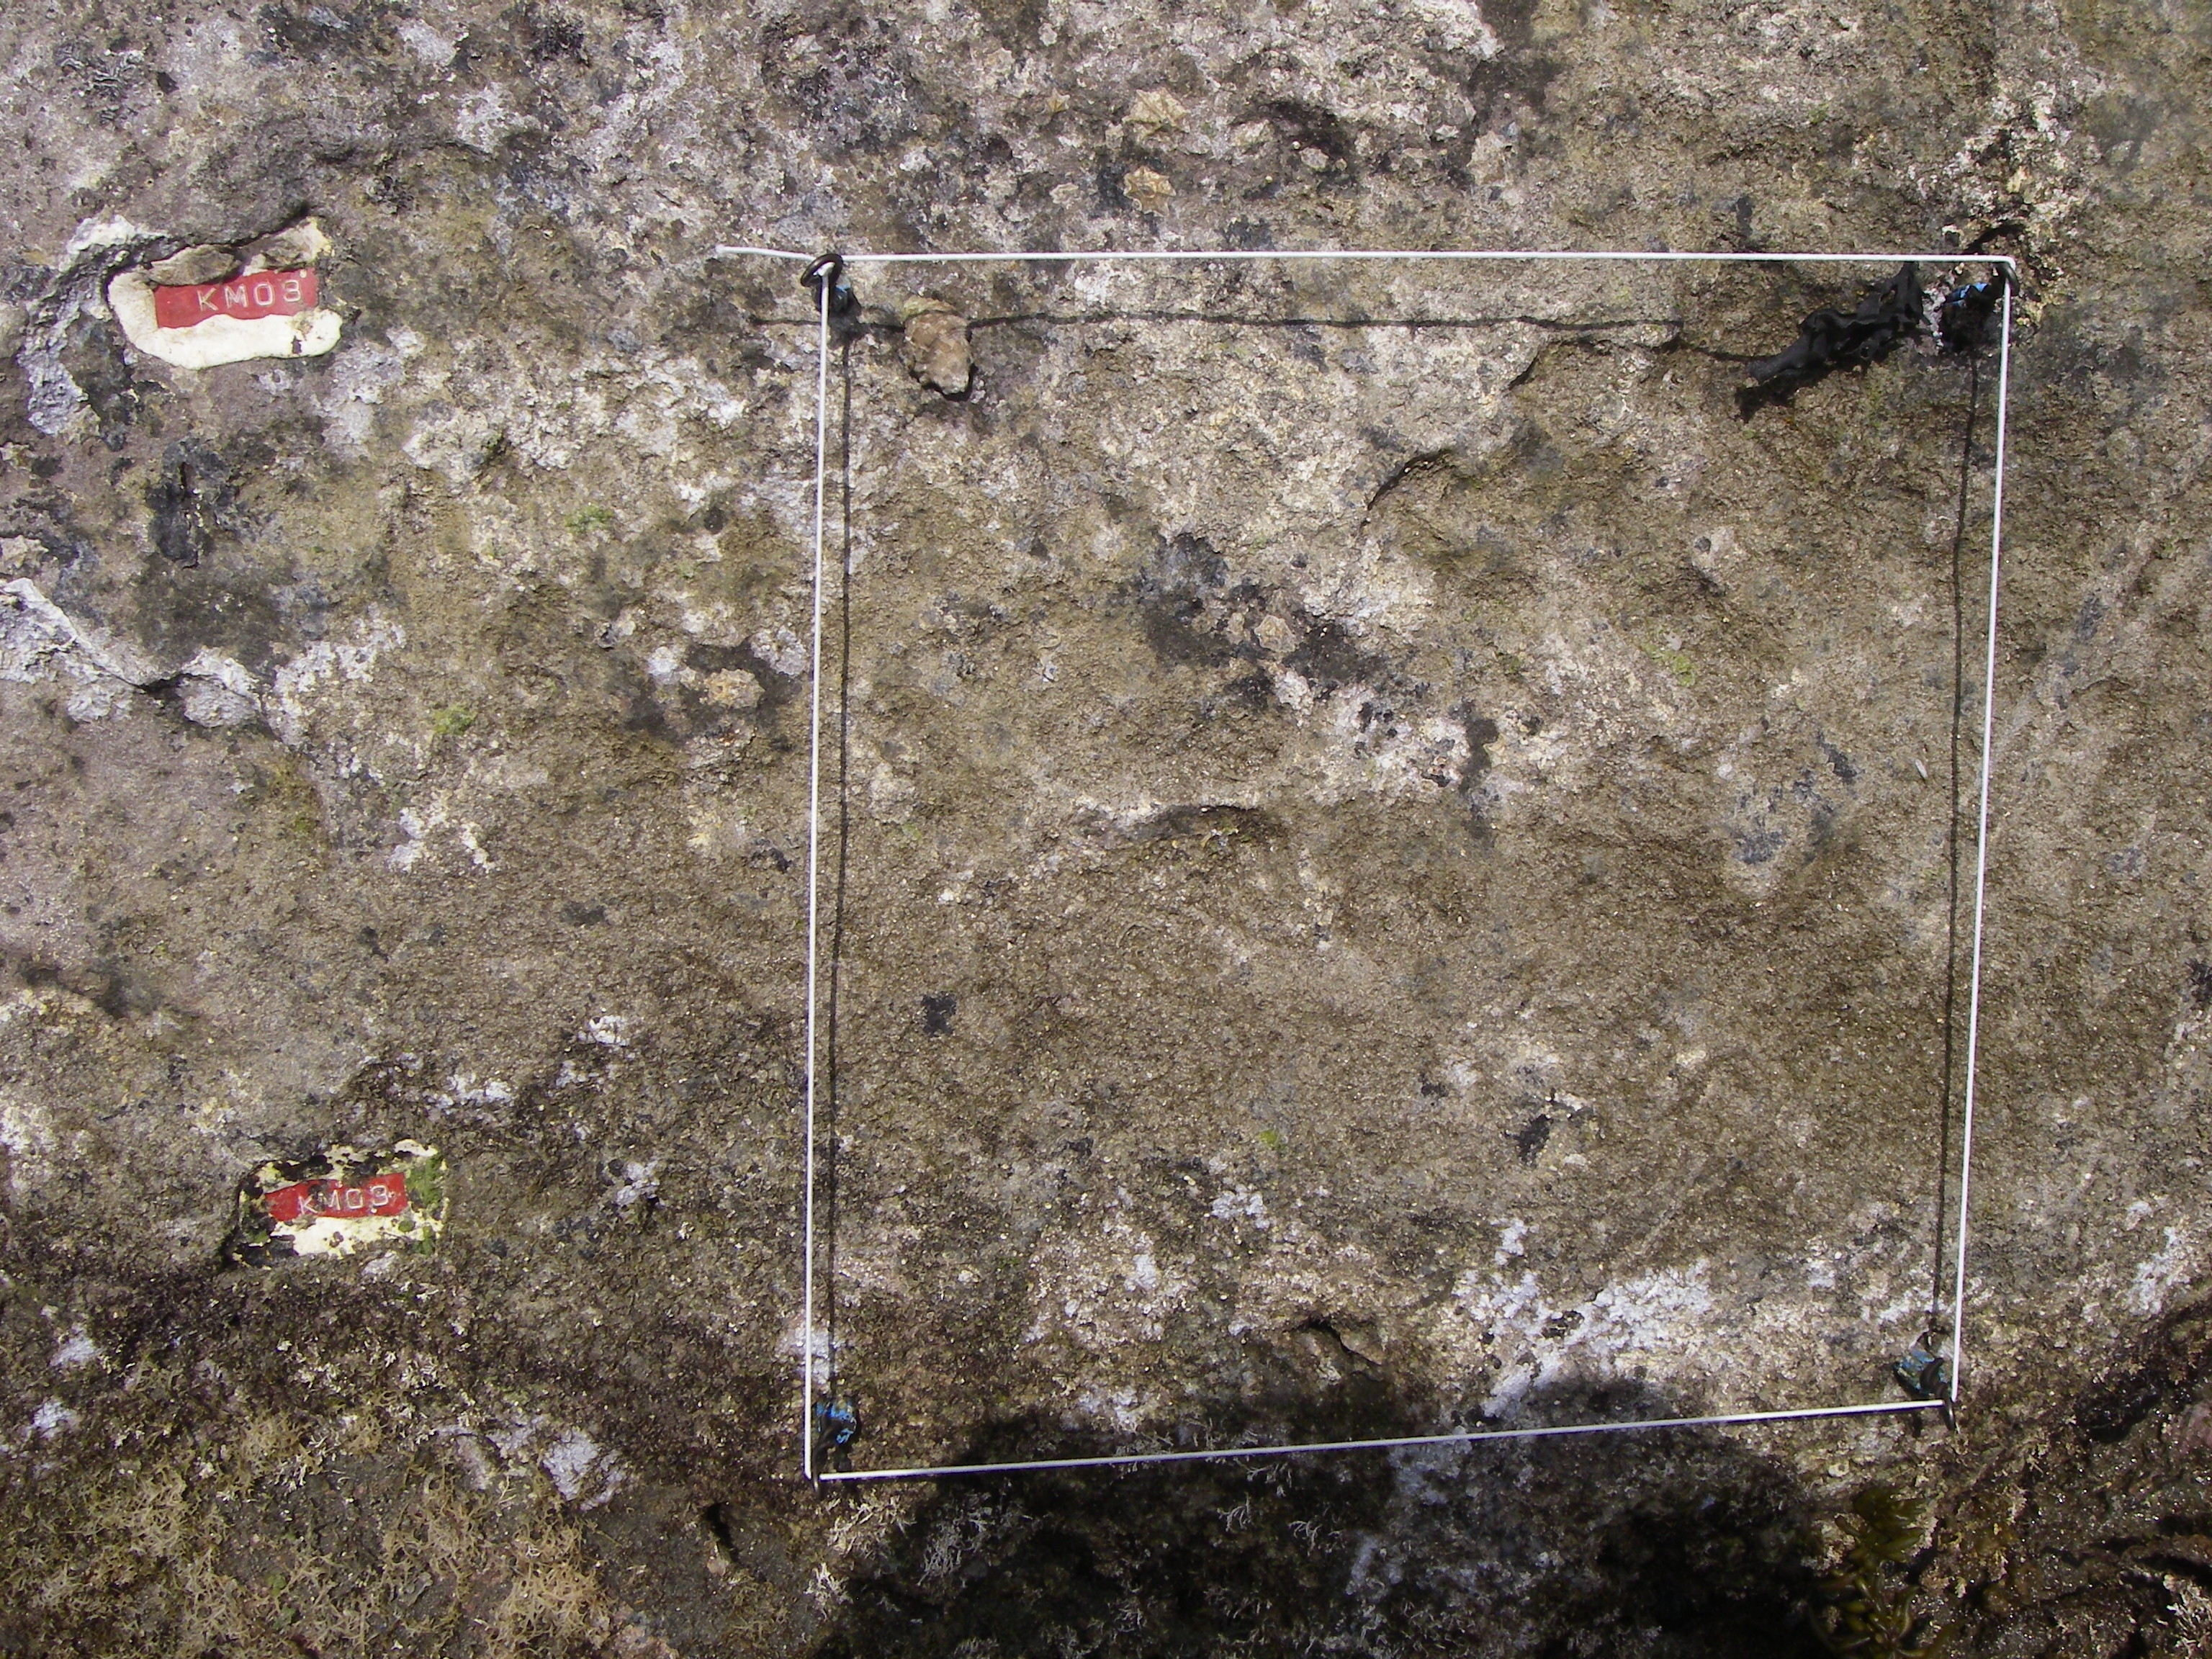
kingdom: Animalia
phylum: Arthropoda
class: Maxillopoda
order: Sessilia
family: Chthamalidae
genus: Chthamalus
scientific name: Chthamalus challengeri
